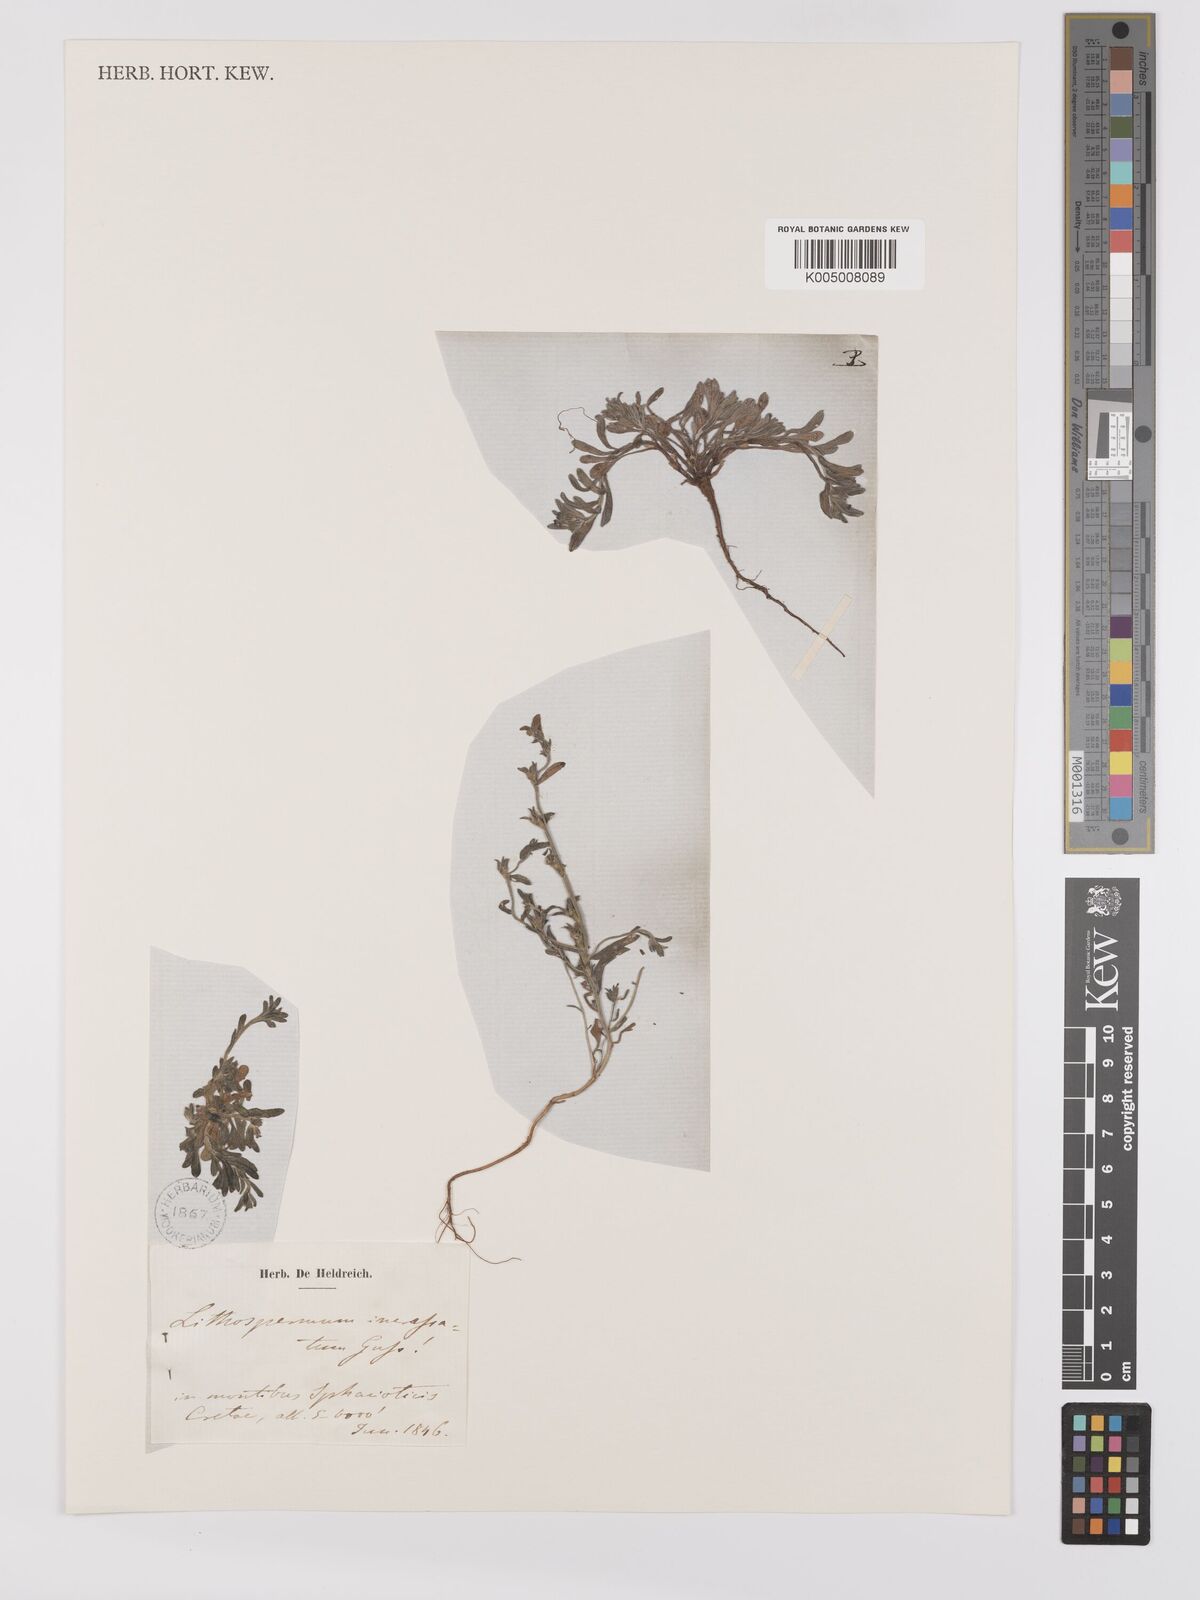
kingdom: Plantae
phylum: Tracheophyta
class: Magnoliopsida
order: Boraginales
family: Boraginaceae
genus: Buglossoides
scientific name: Buglossoides incrassata
